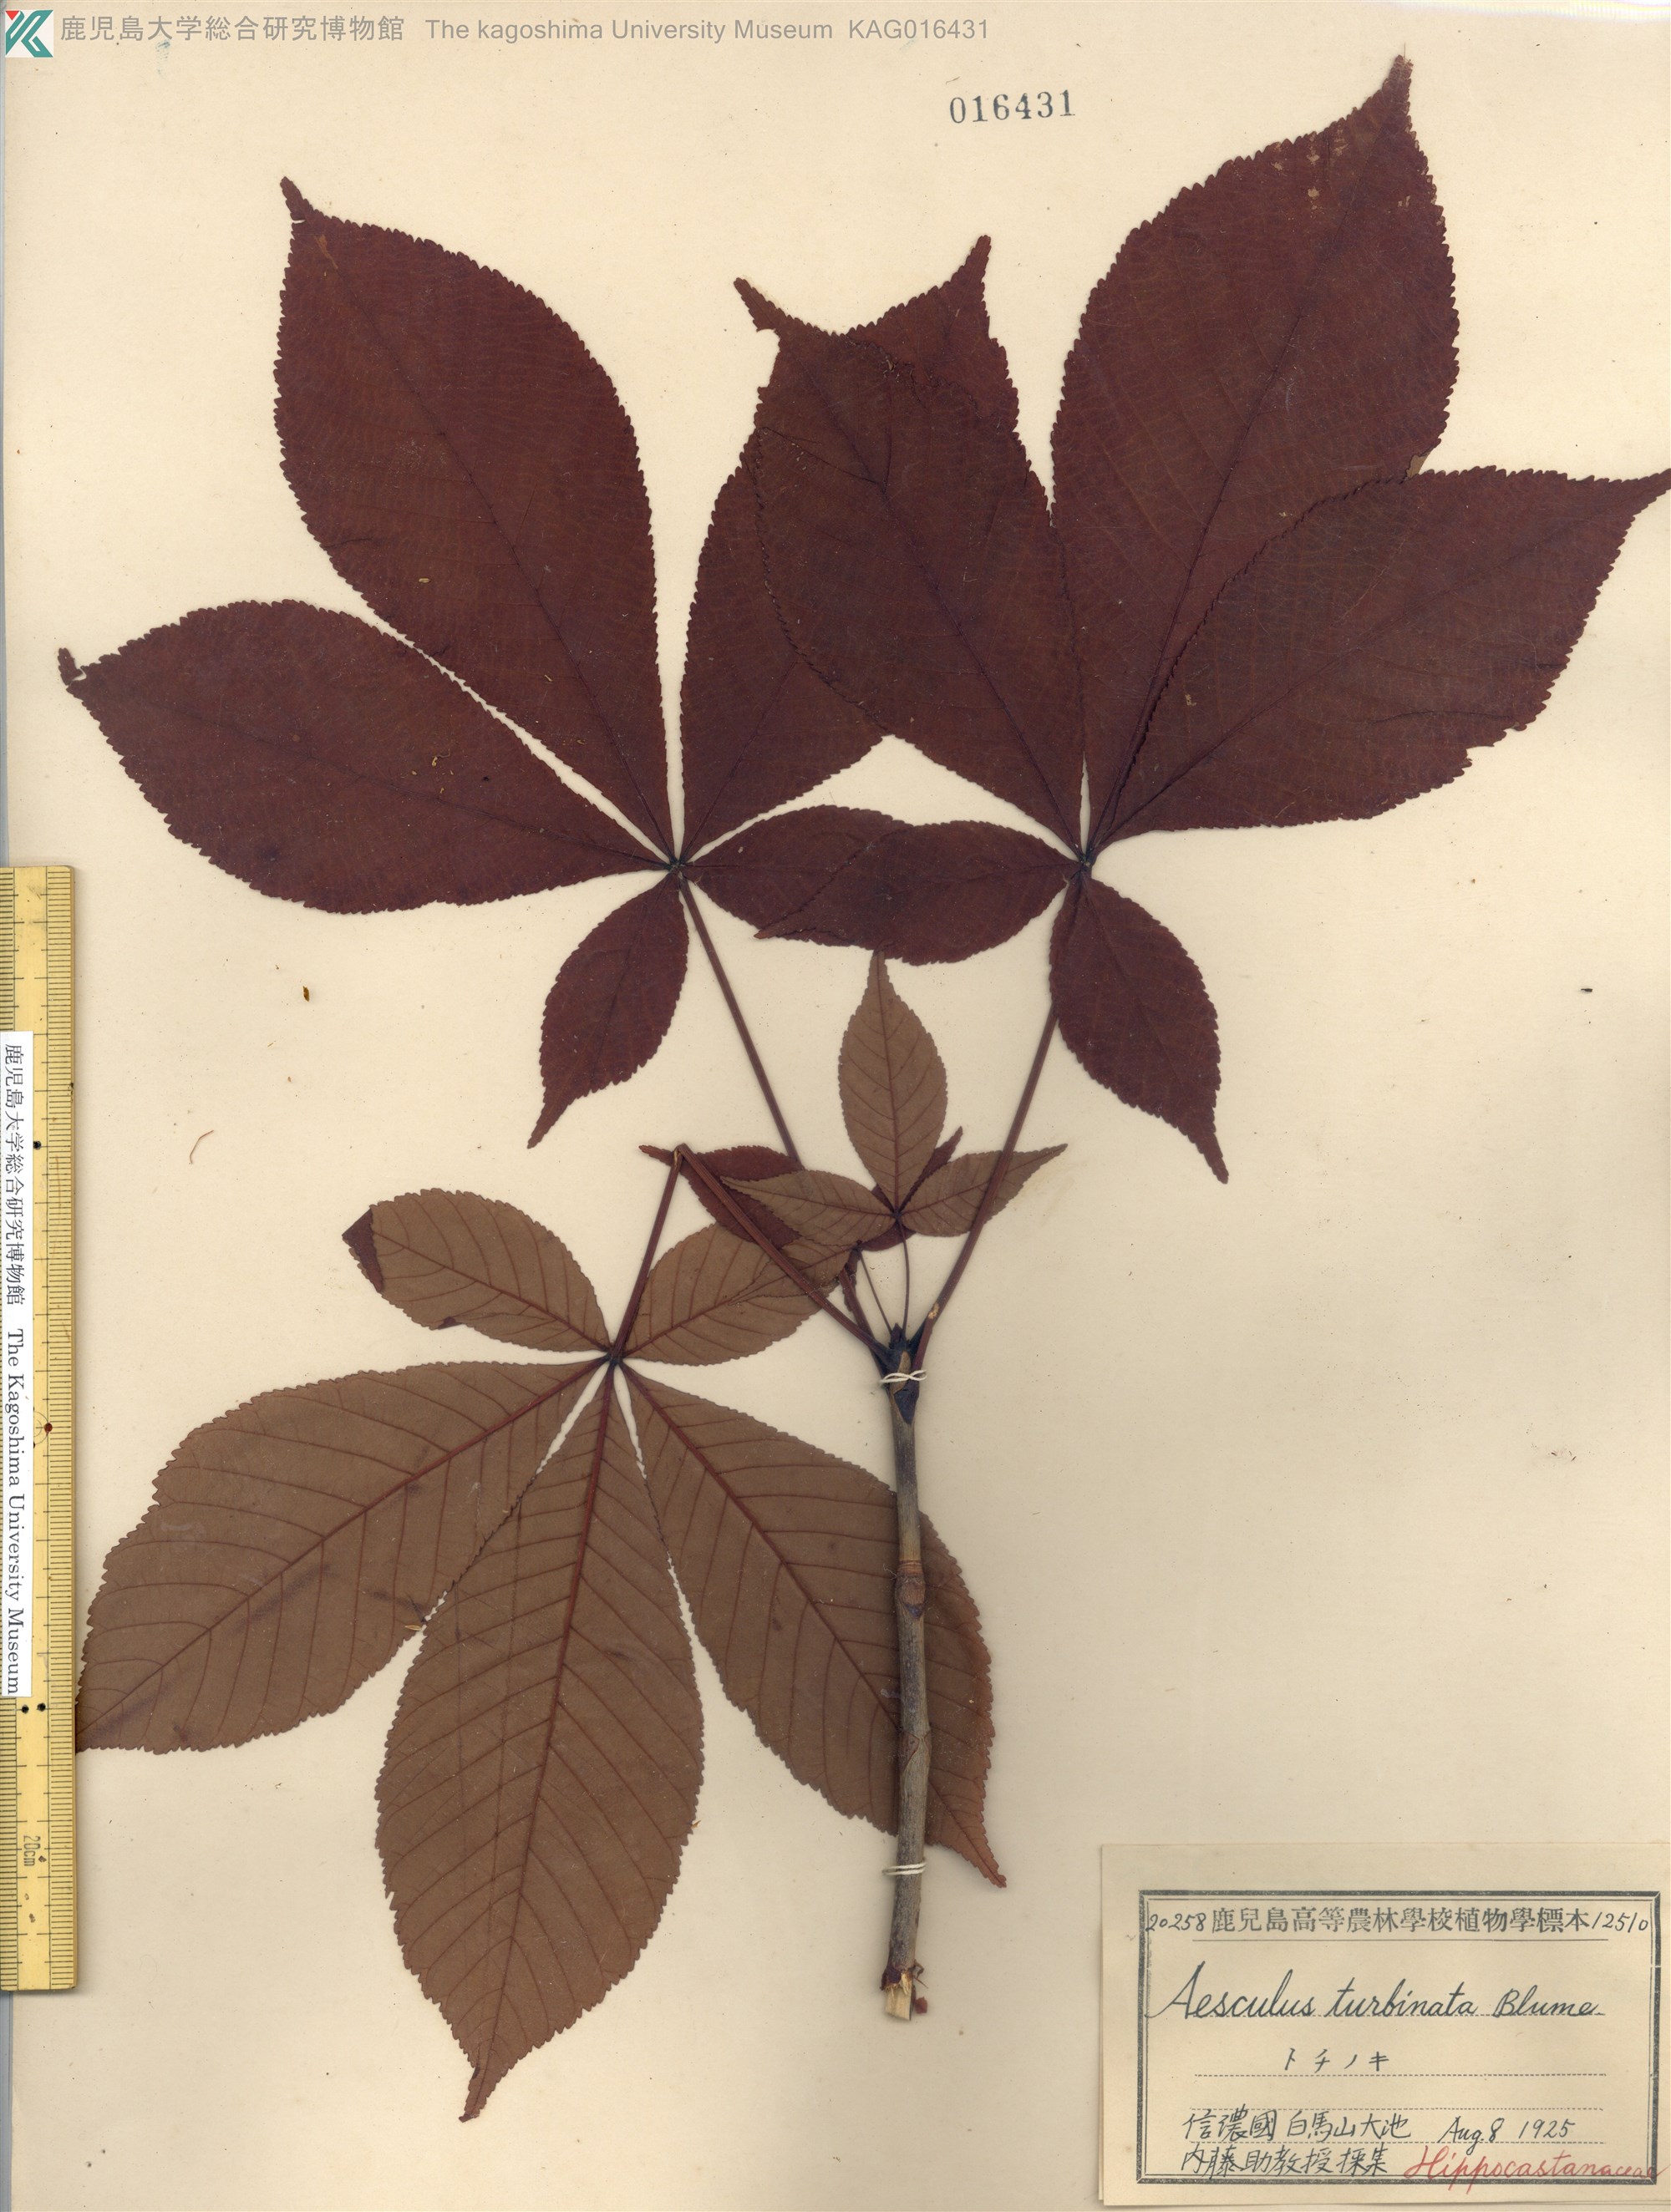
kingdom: Plantae
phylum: Tracheophyta
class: Magnoliopsida
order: Sapindales
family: Sapindaceae
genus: Aesculus
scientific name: Aesculus turbinata
